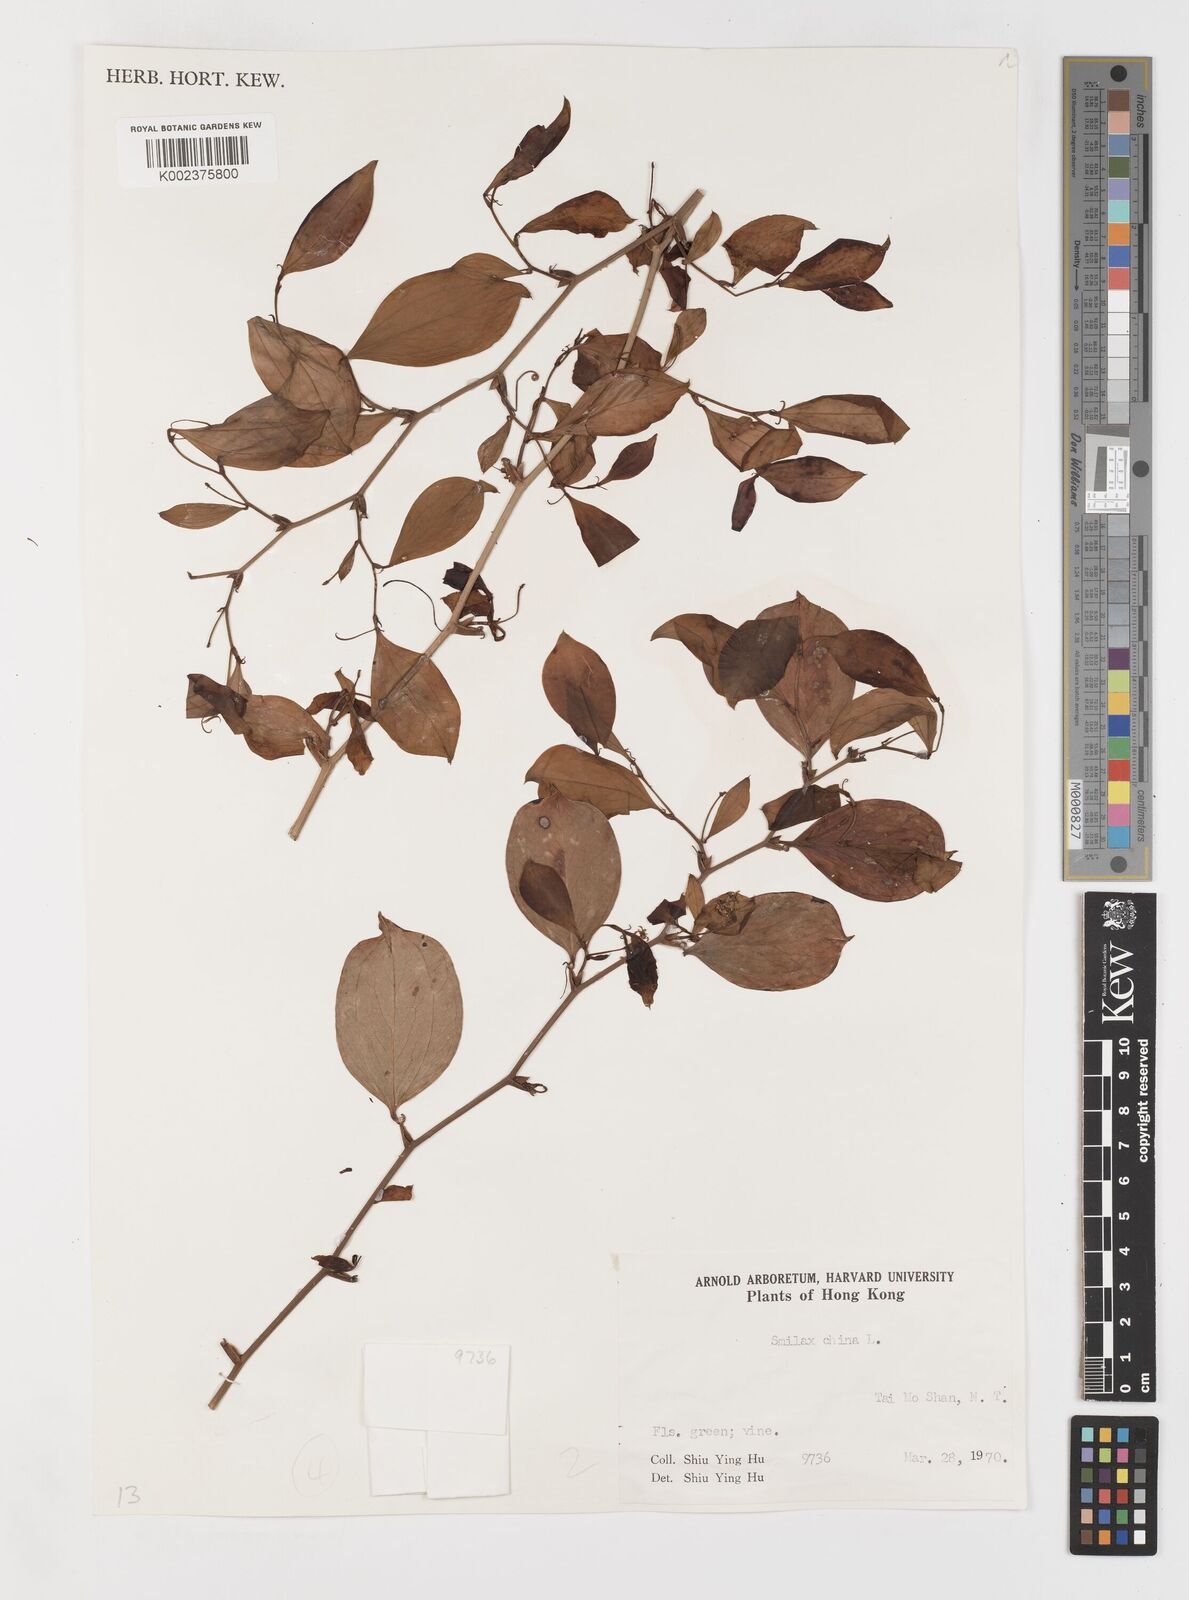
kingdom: Plantae
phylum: Tracheophyta
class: Liliopsida
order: Liliales
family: Smilacaceae
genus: Smilax
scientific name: Smilax china
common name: Chinaroot
